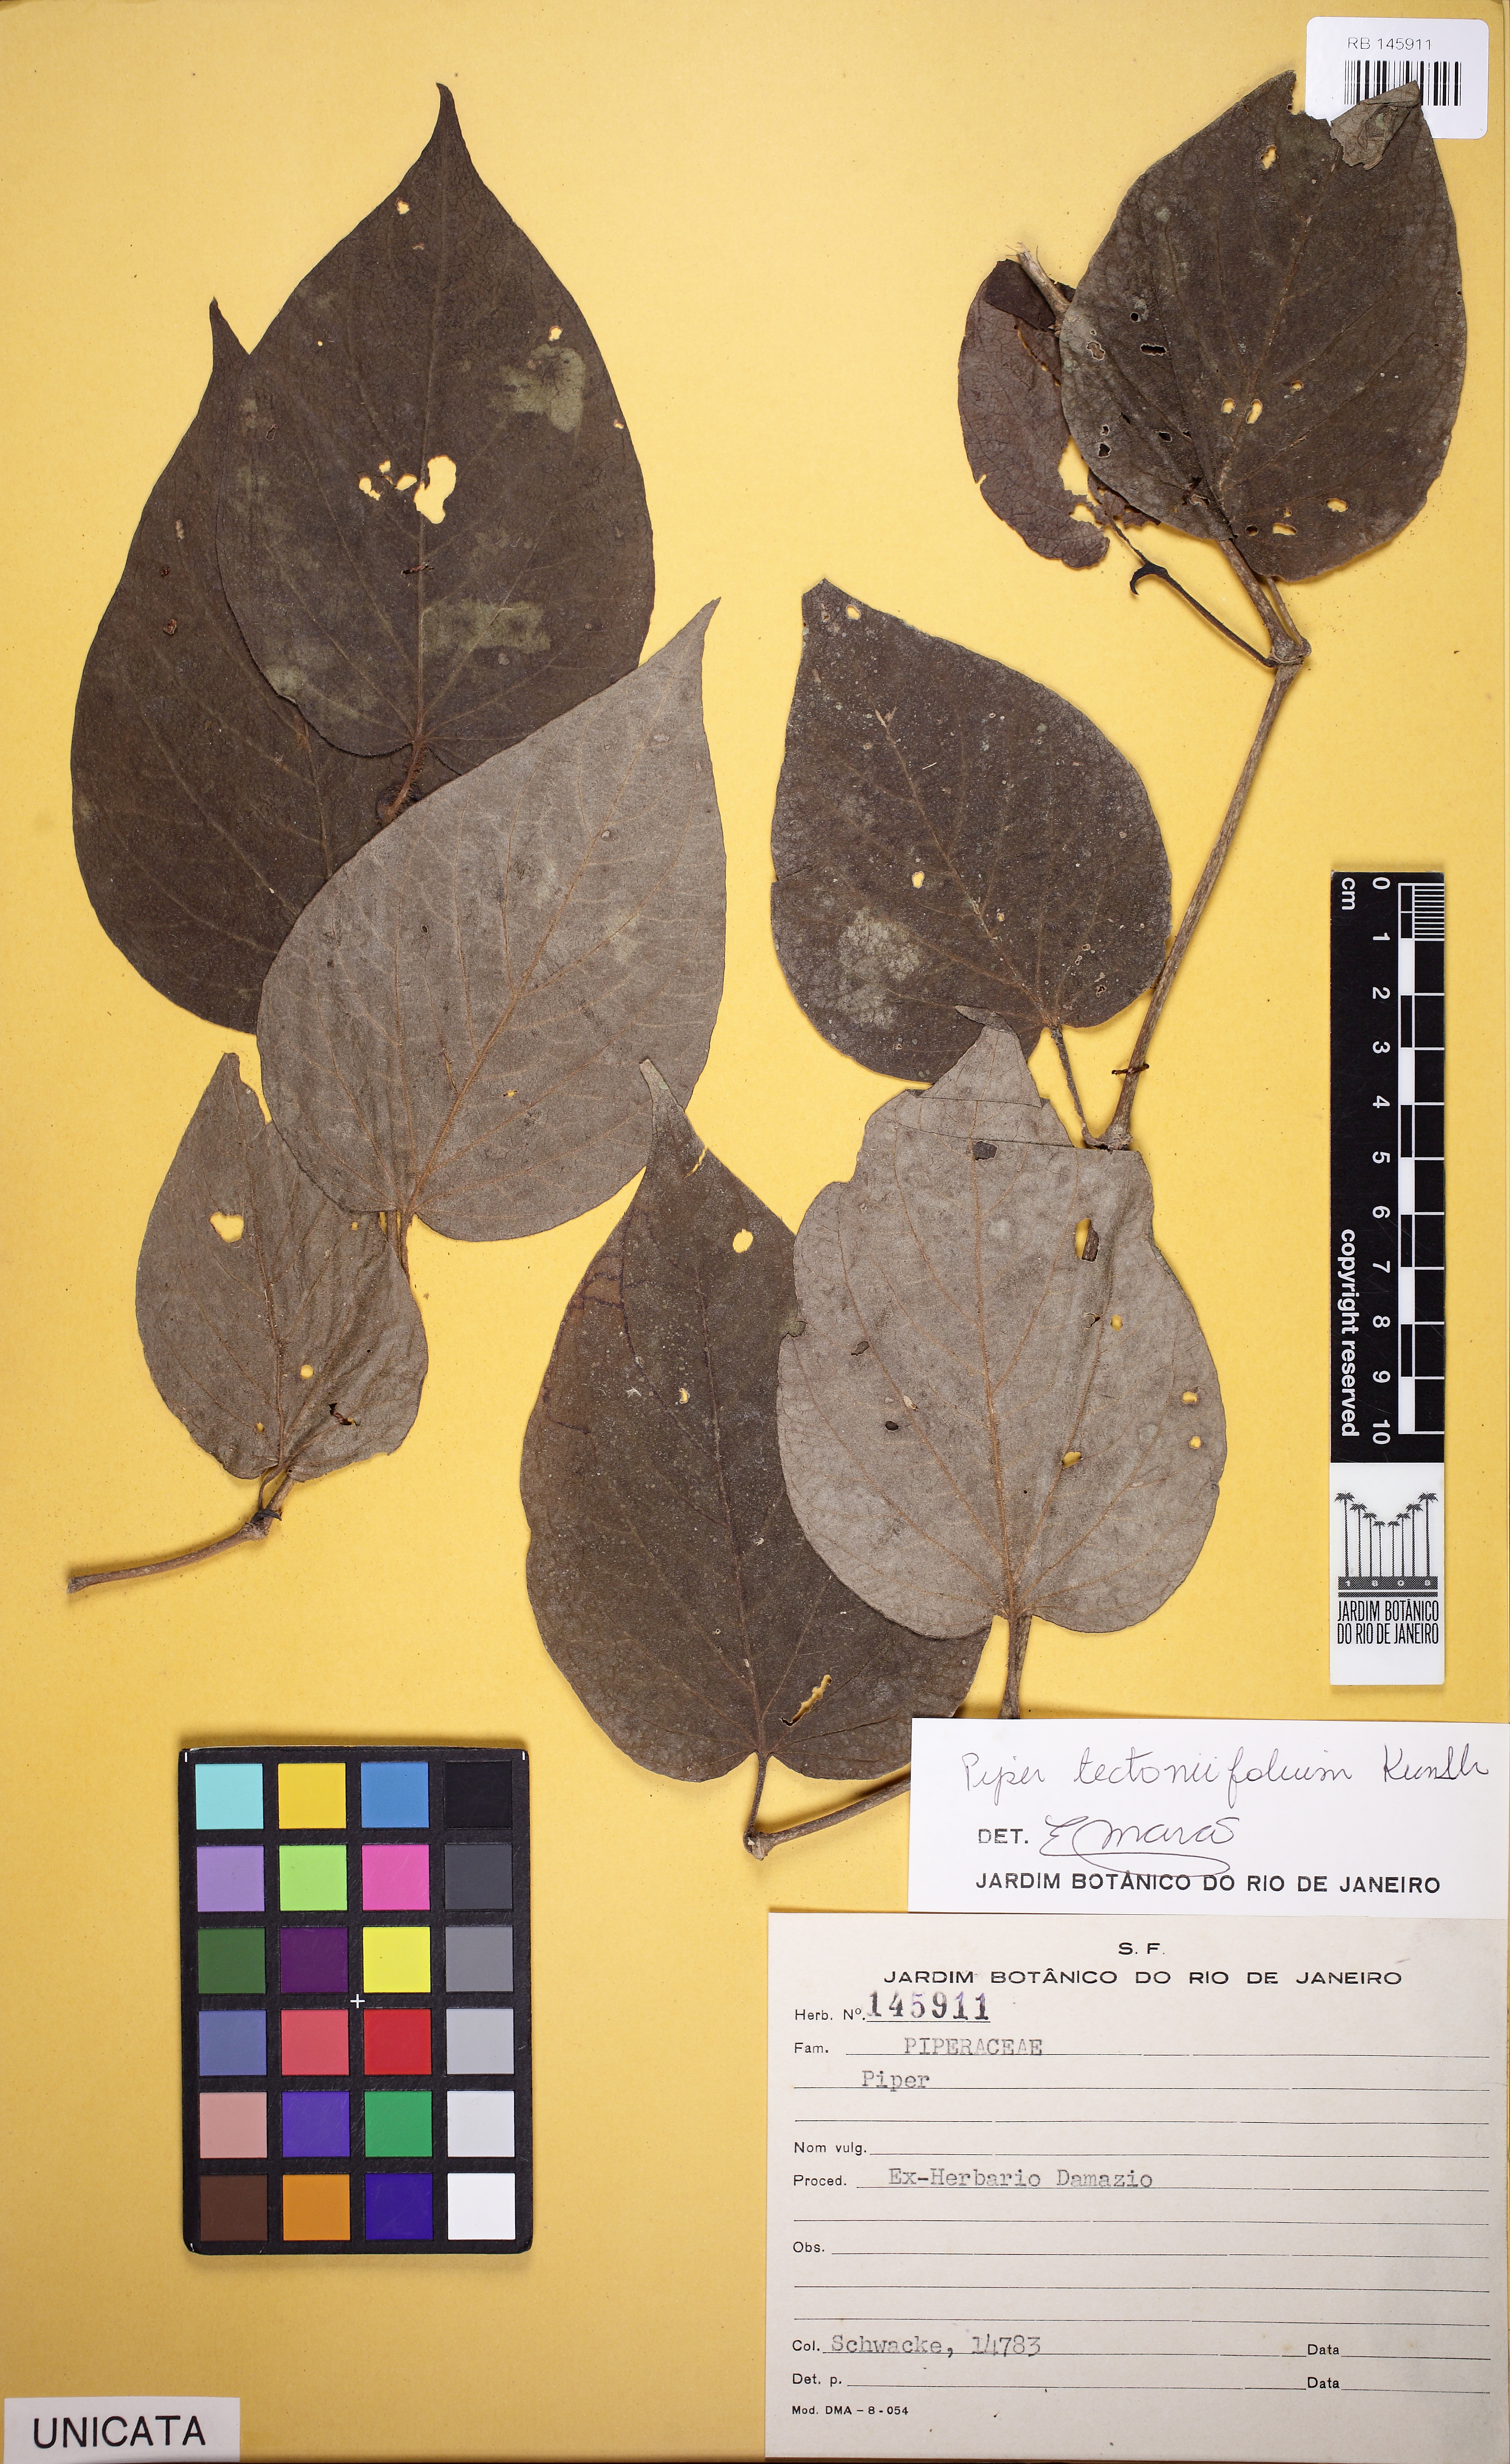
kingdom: Plantae
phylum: Tracheophyta
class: Magnoliopsida
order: Piperales
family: Piperaceae
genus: Piper
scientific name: Piper tectoniifolium
